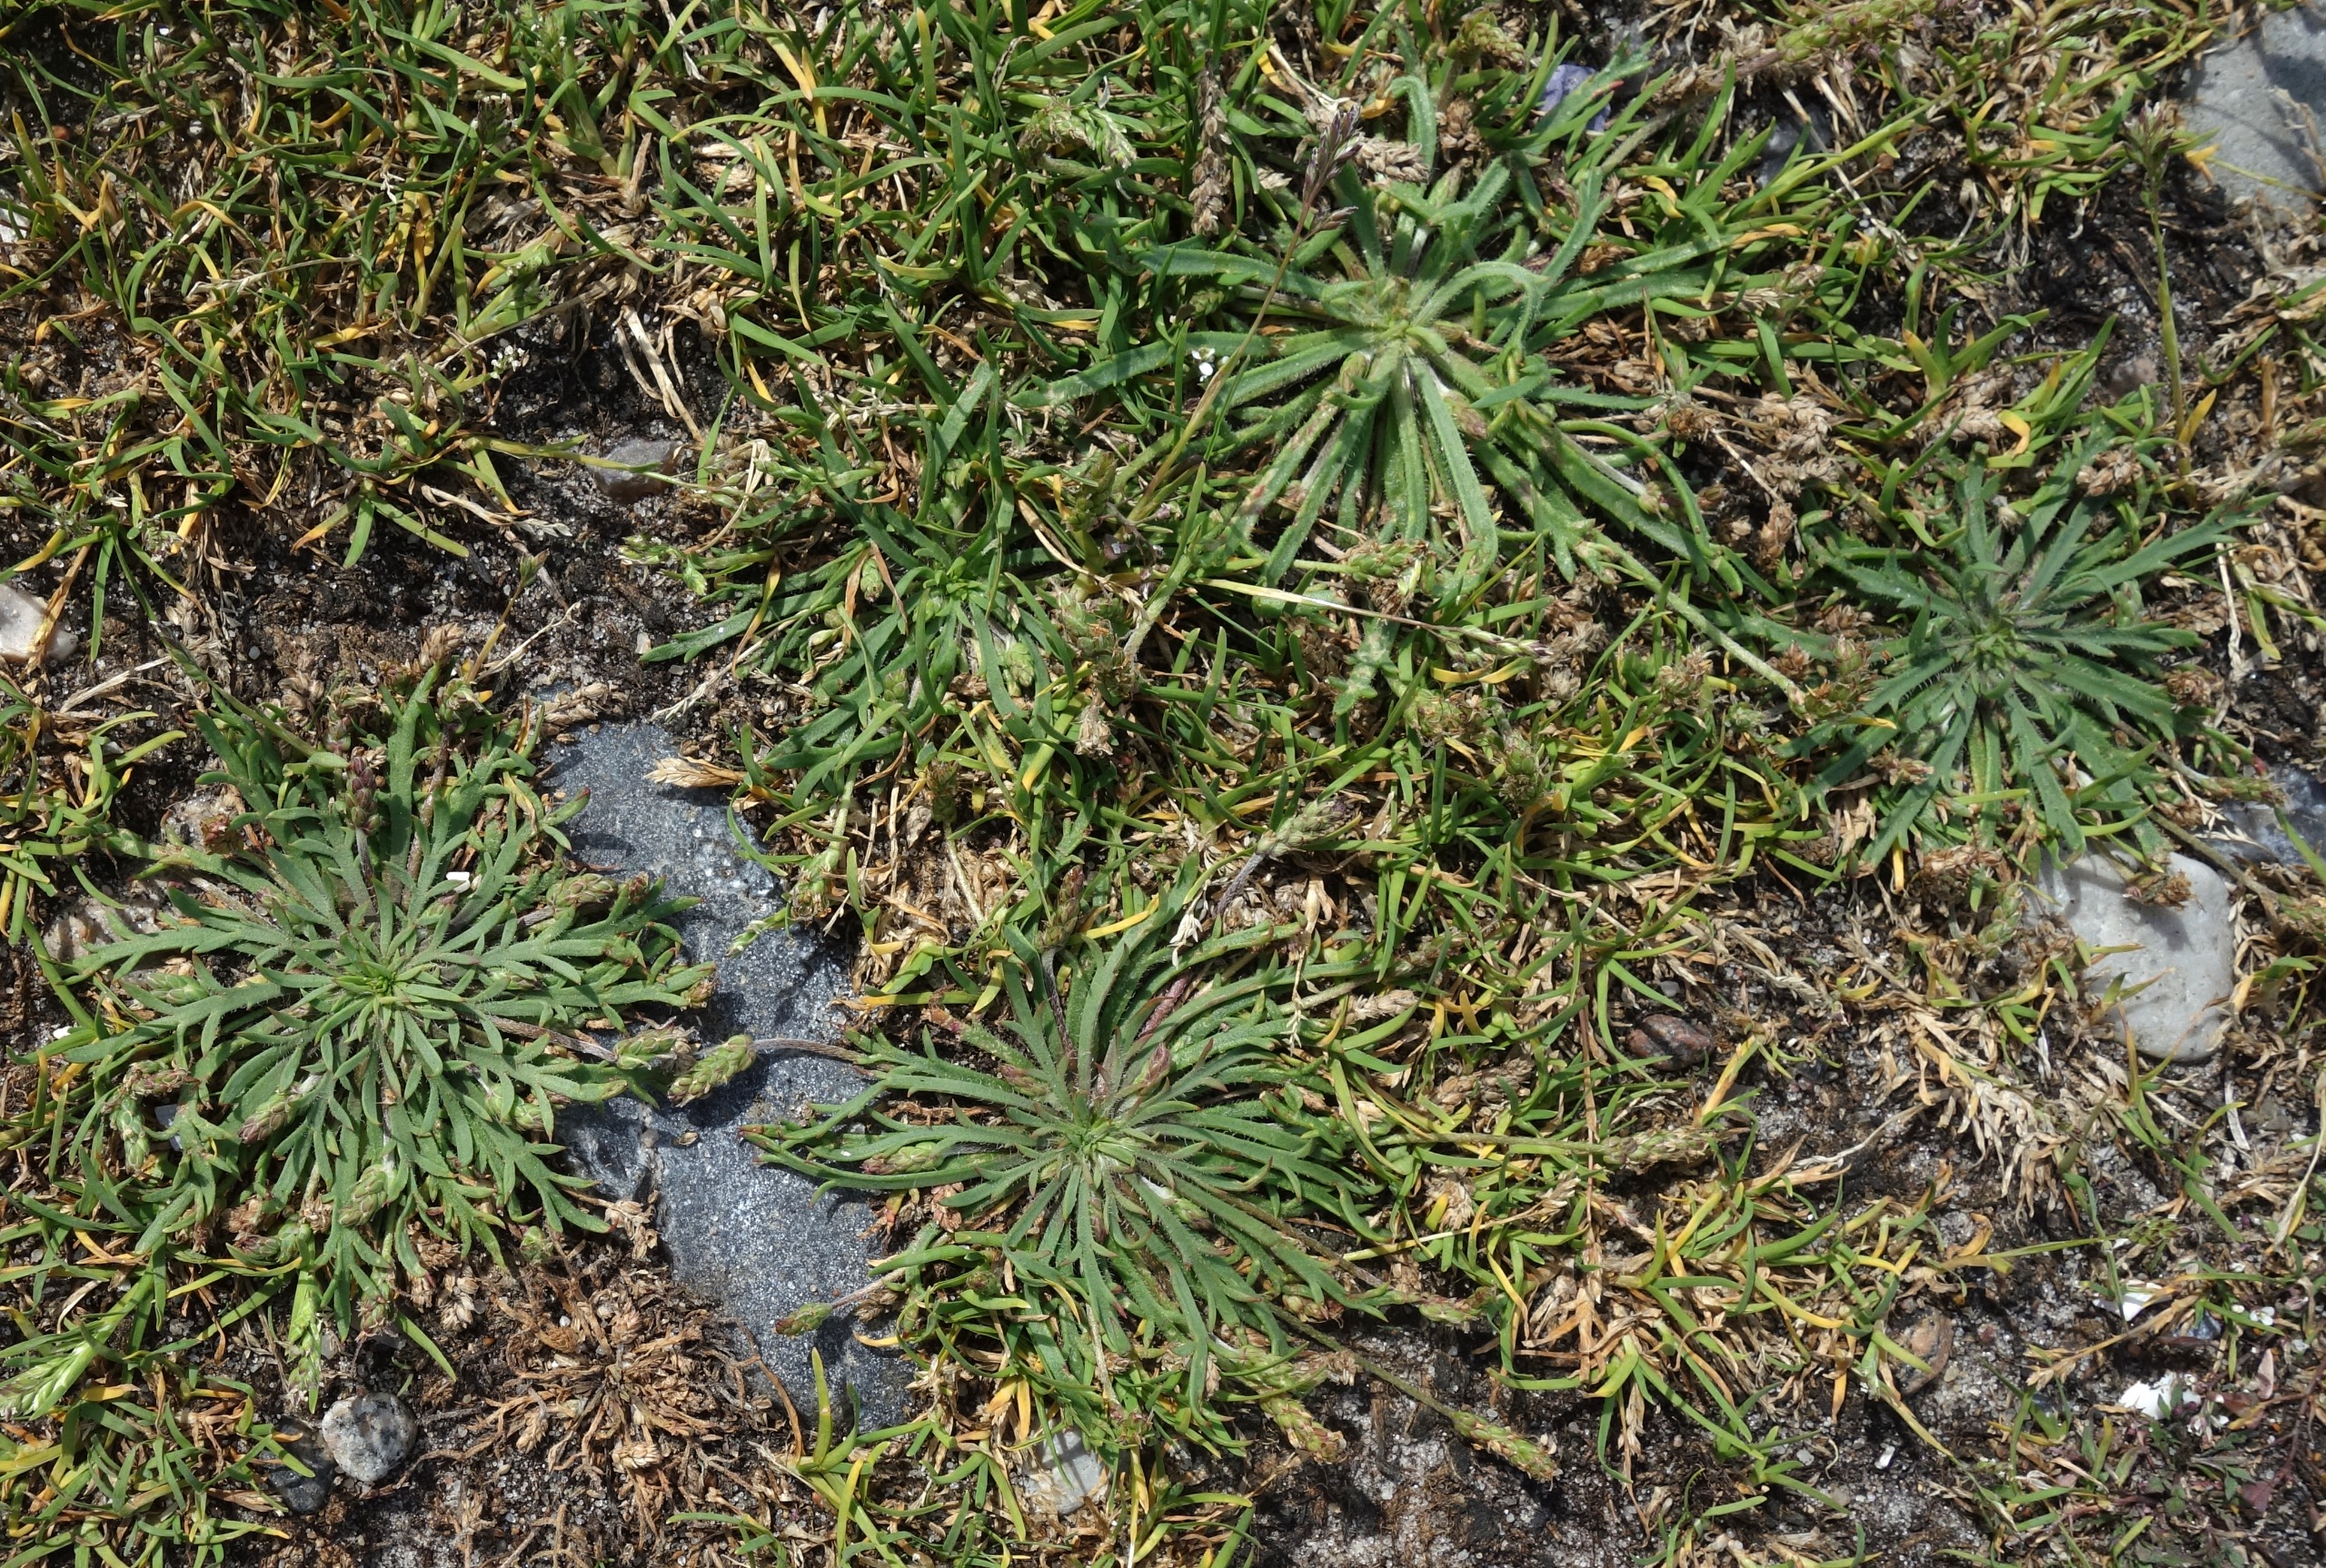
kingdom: Plantae
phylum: Tracheophyta
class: Magnoliopsida
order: Lamiales
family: Plantaginaceae
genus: Plantago
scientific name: Plantago coronopus
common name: Fliget vejbred
